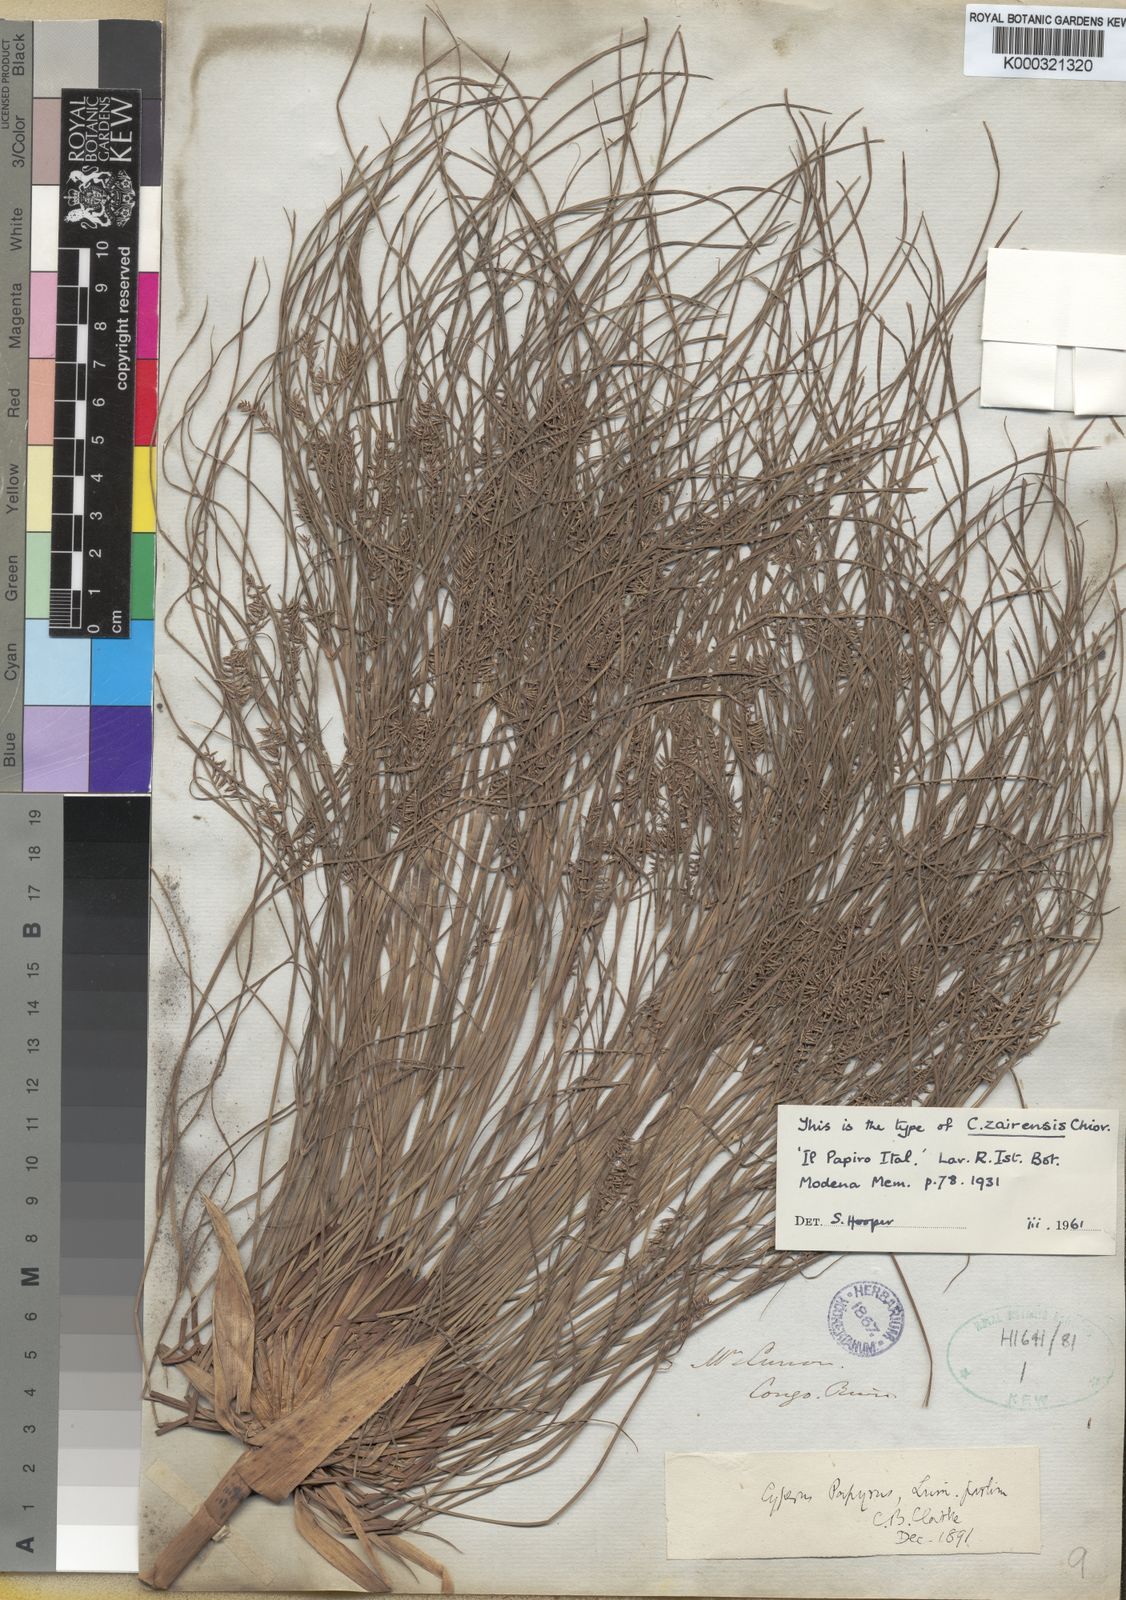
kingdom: Plantae
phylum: Tracheophyta
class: Liliopsida
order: Poales
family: Cyperaceae
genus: Cyperus
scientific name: Cyperus papyrus
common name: Papyrus
